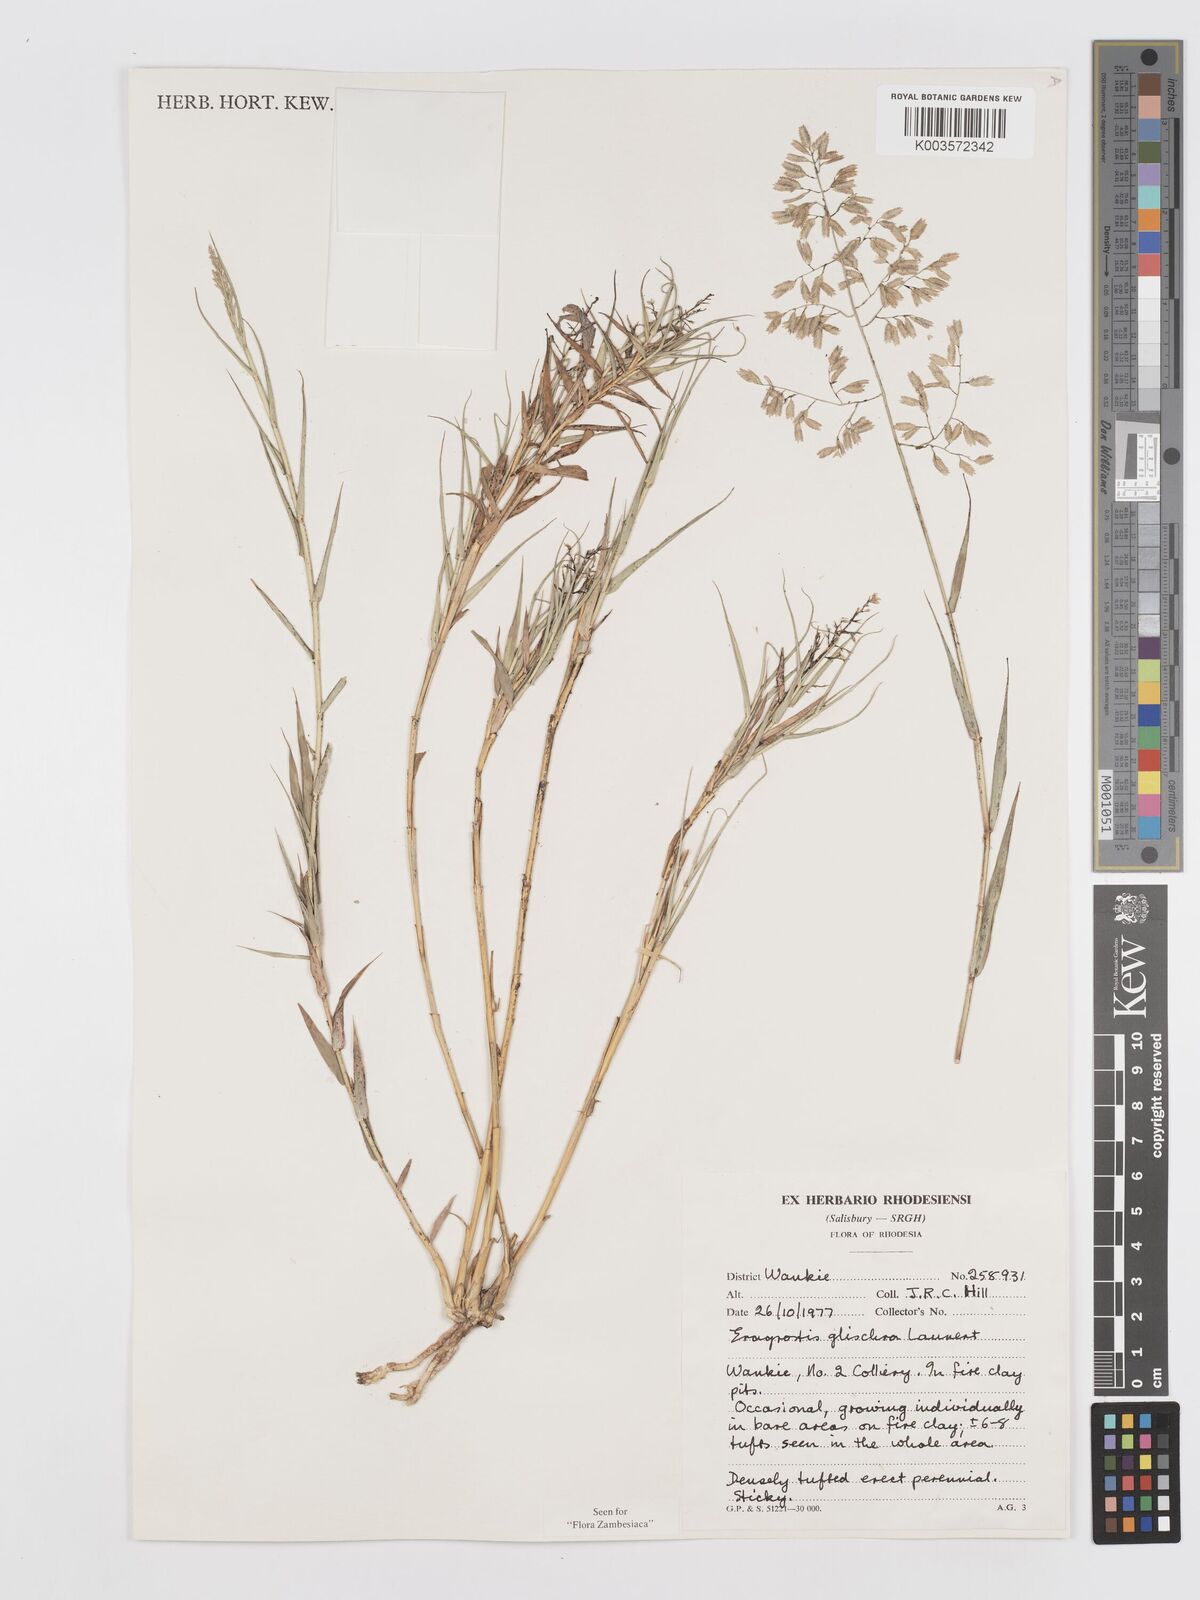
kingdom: Plantae
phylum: Tracheophyta
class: Liliopsida
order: Poales
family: Poaceae
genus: Eragrostis
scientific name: Eragrostis glischra
